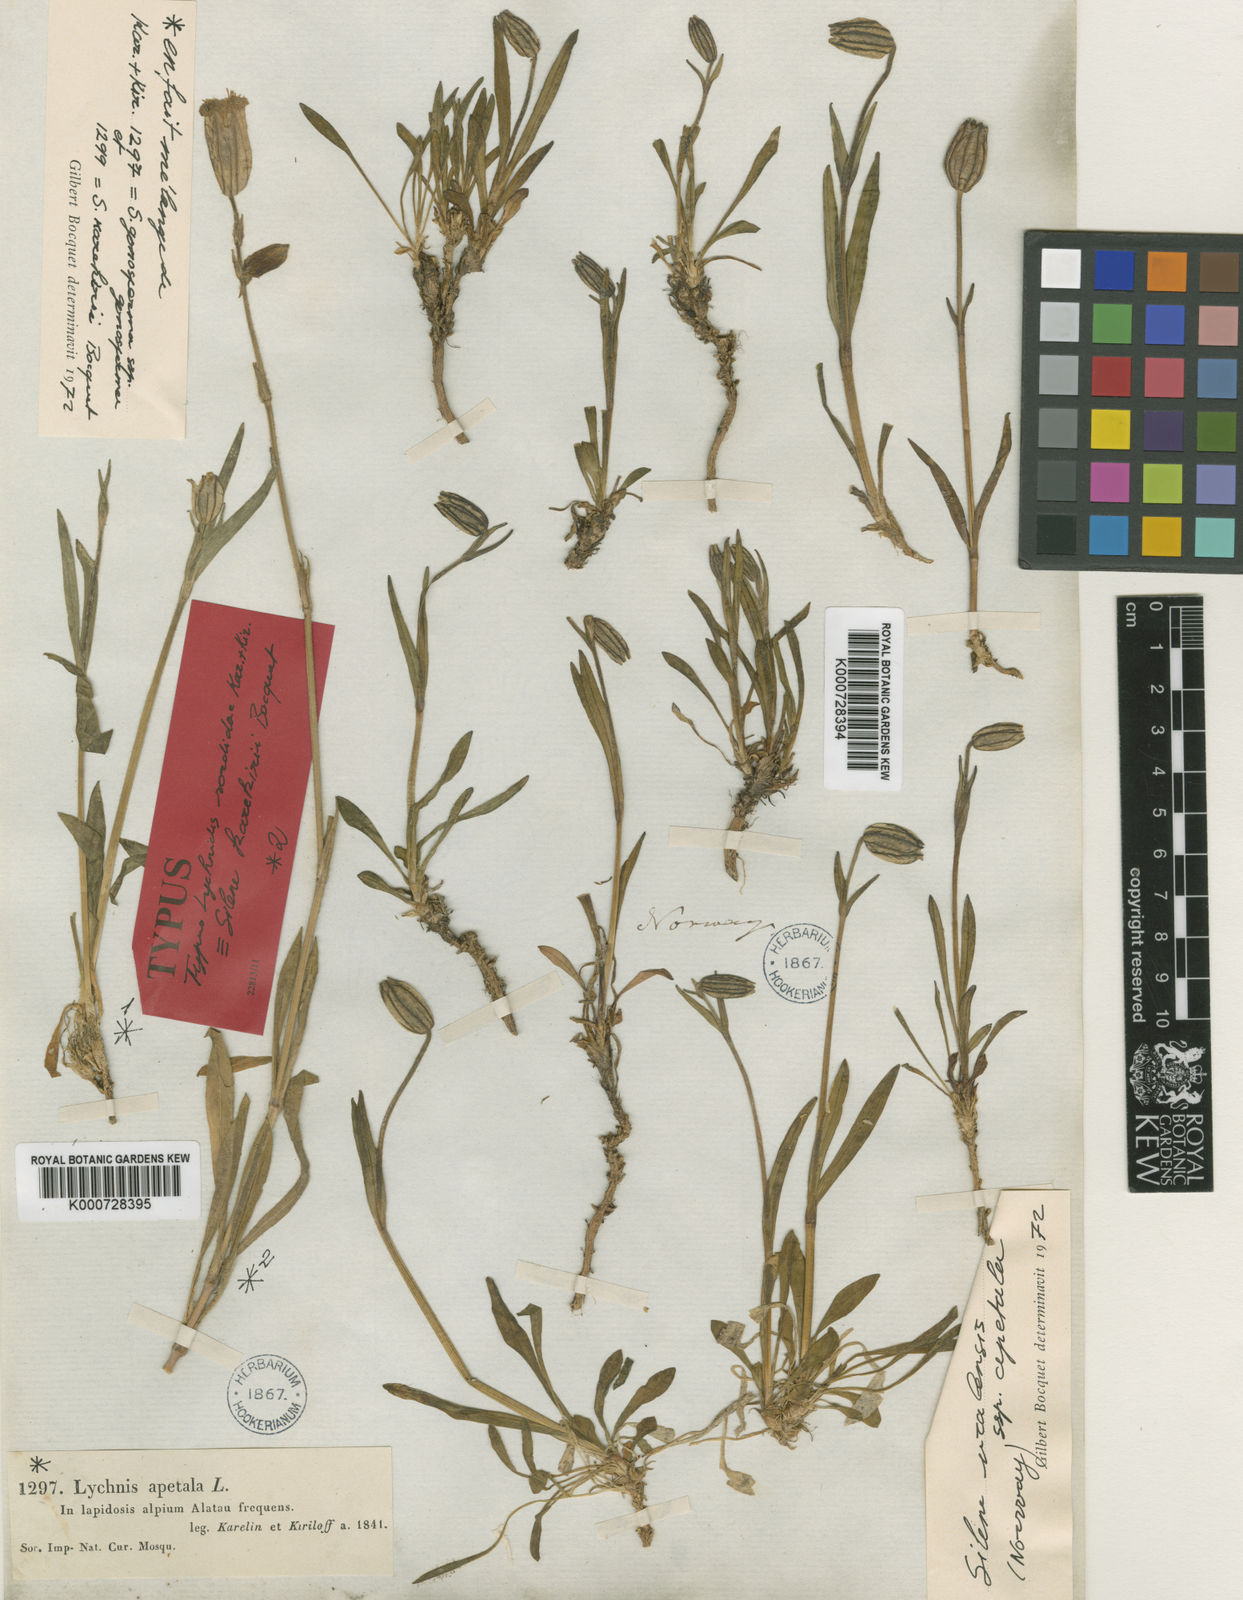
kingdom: Plantae
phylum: Tracheophyta
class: Magnoliopsida
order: Caryophyllales
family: Caryophyllaceae
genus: Silene
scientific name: Silene
